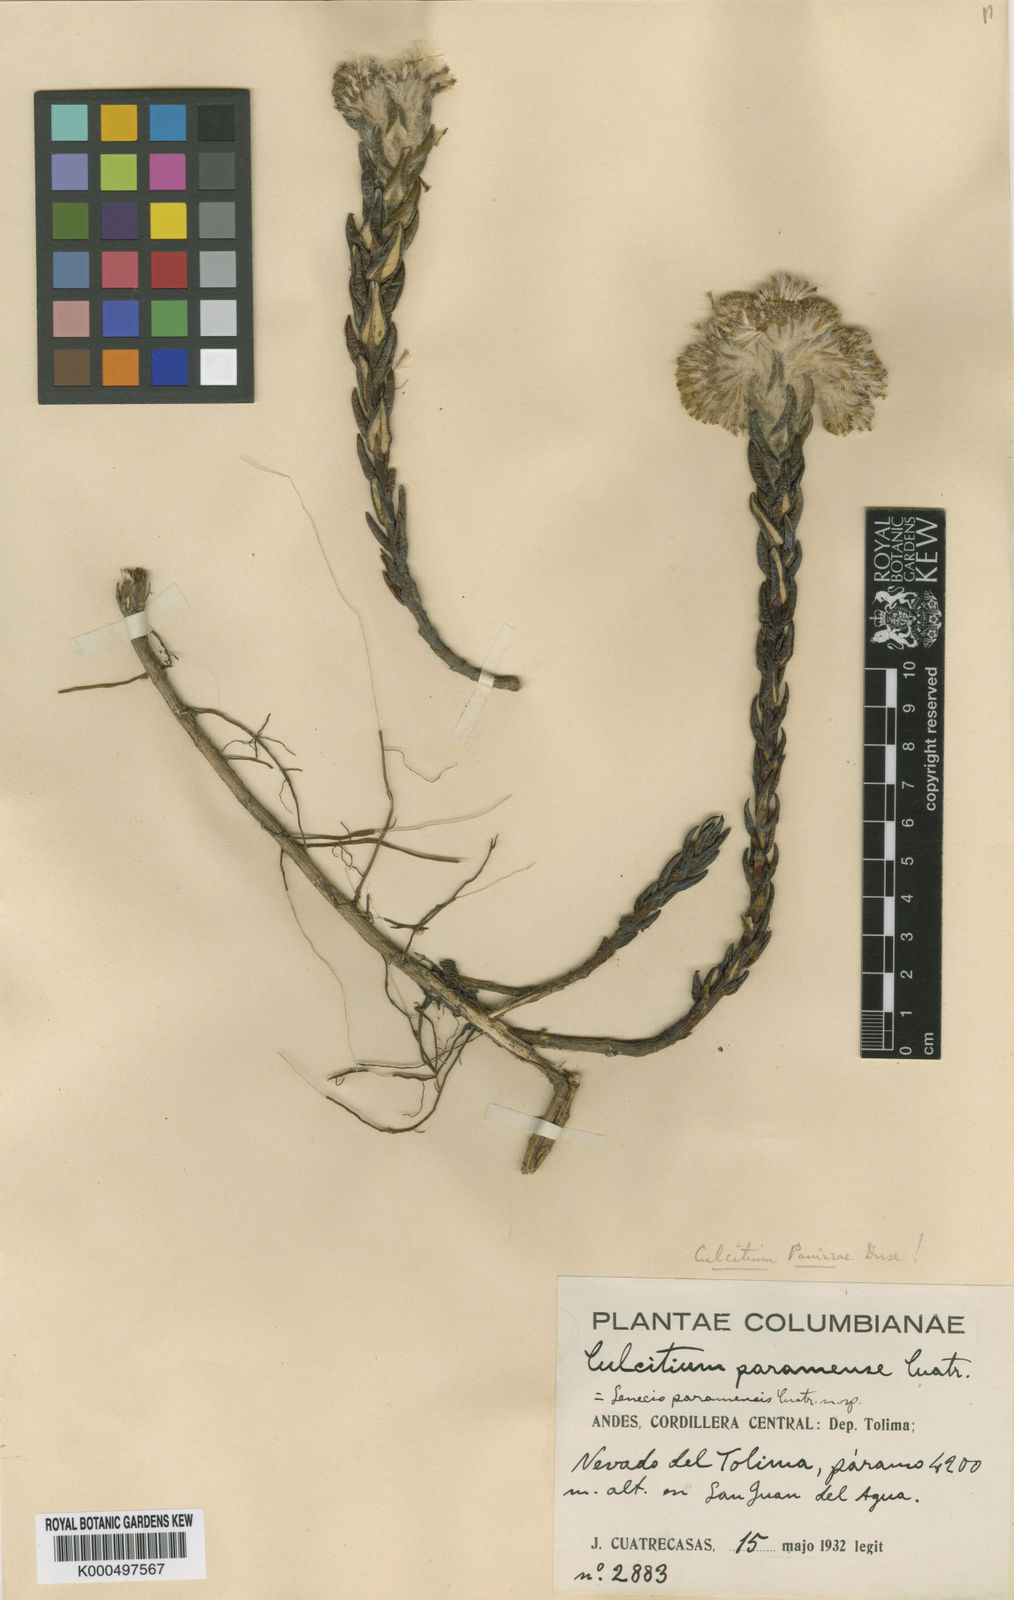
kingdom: Plantae
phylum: Tracheophyta
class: Magnoliopsida
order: Asterales
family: Asteraceae
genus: Monticalia
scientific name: Monticalia gelida
